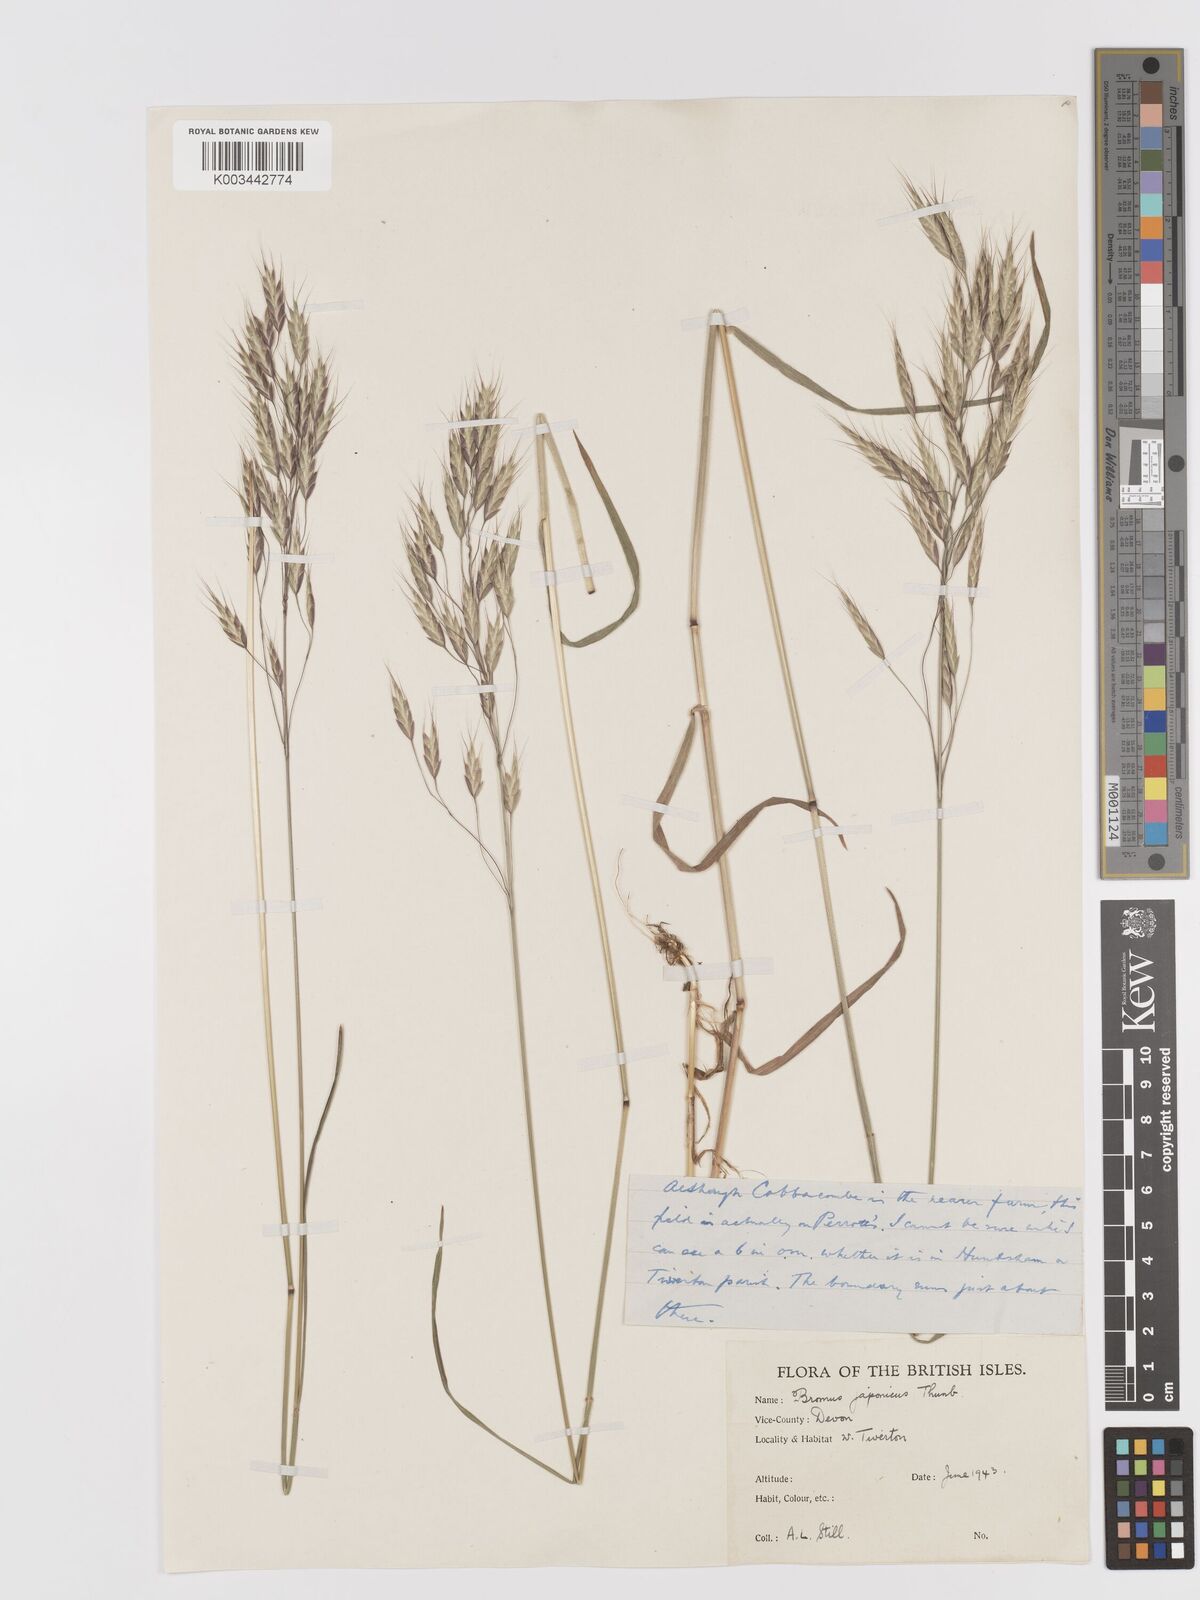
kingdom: Plantae
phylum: Tracheophyta
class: Liliopsida
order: Poales
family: Poaceae
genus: Bromus
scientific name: Bromus japonicus
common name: Japanese brome
